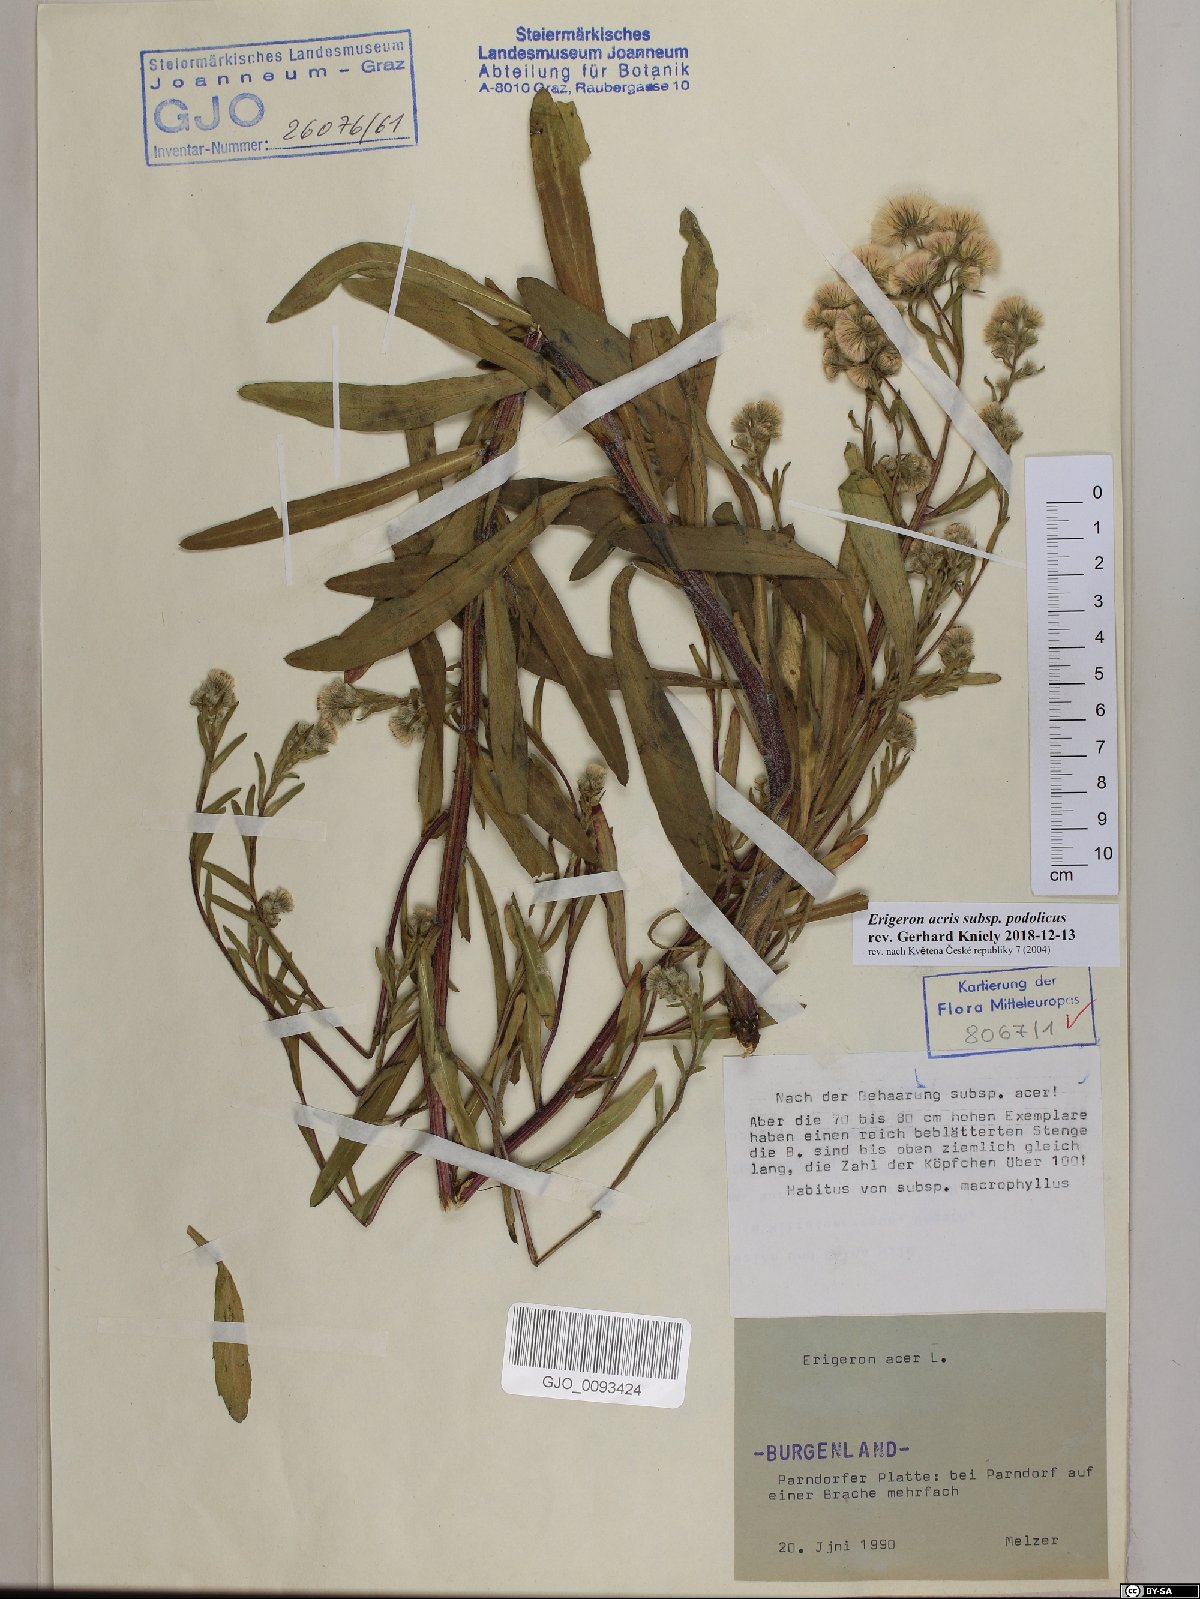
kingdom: Plantae
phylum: Tracheophyta
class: Magnoliopsida
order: Asterales
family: Asteraceae
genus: Erigeron
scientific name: Erigeron podolicus
